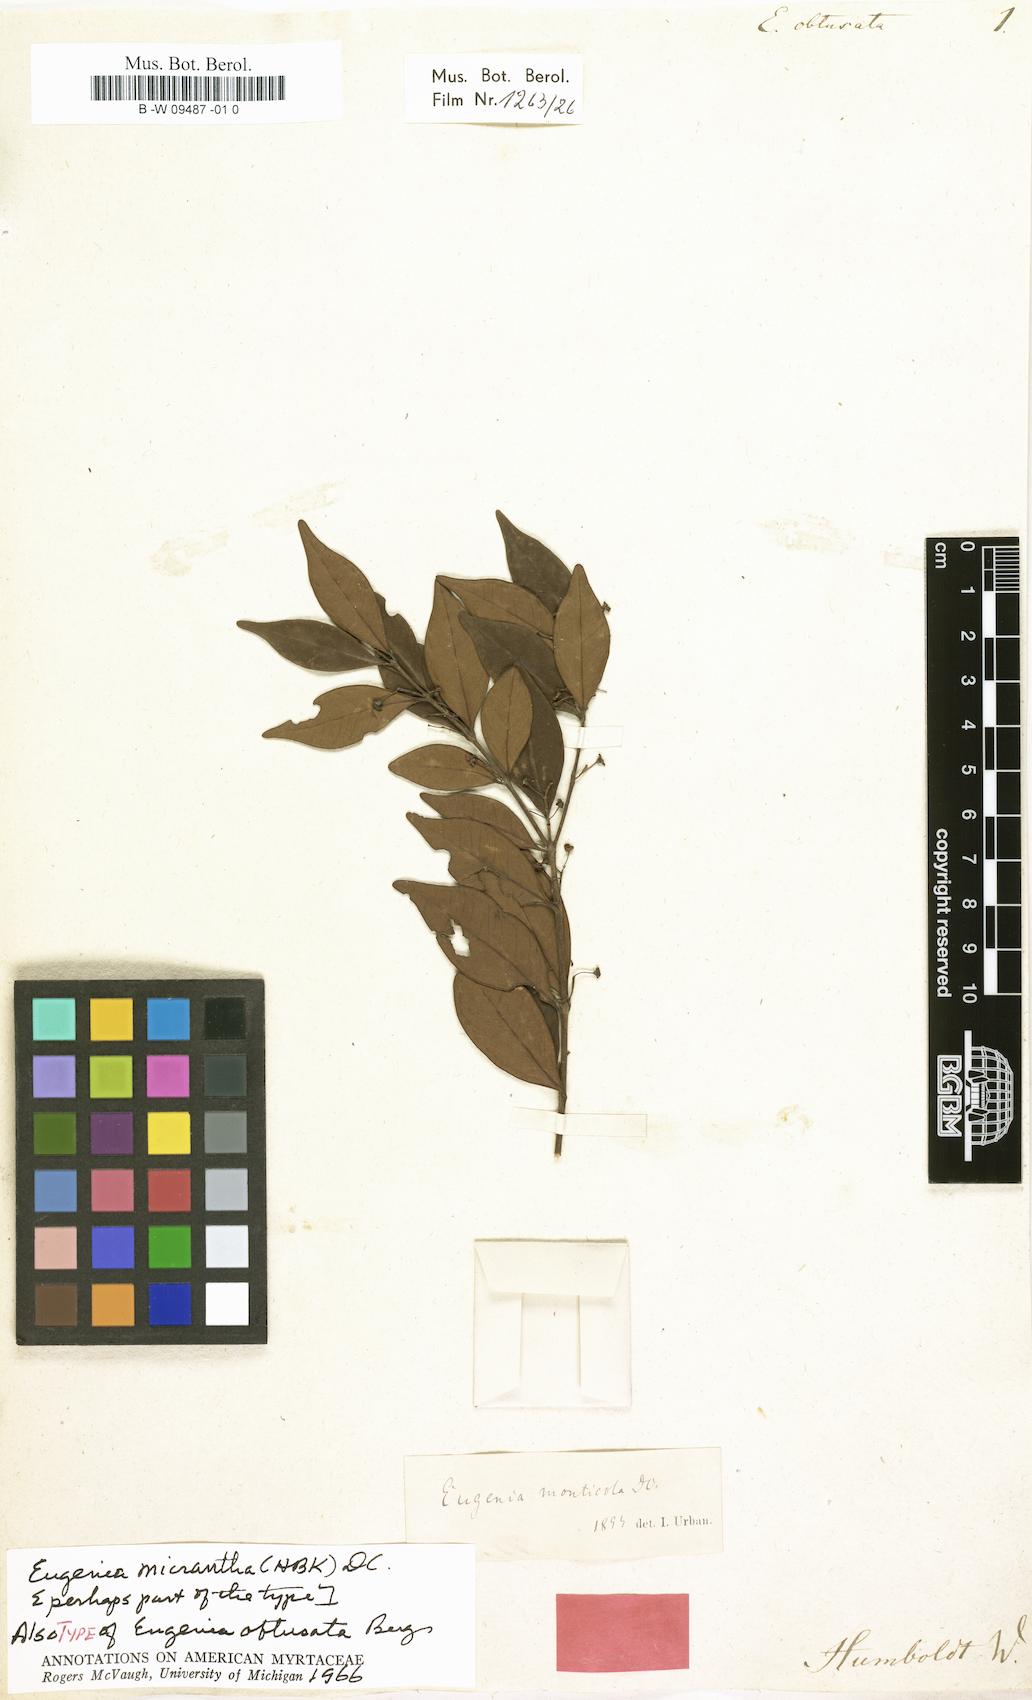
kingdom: Plantae
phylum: Tracheophyta
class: Magnoliopsida
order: Myrtales
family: Myrtaceae
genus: Eugenia
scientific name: Eugenia monticola
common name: Birds berry
